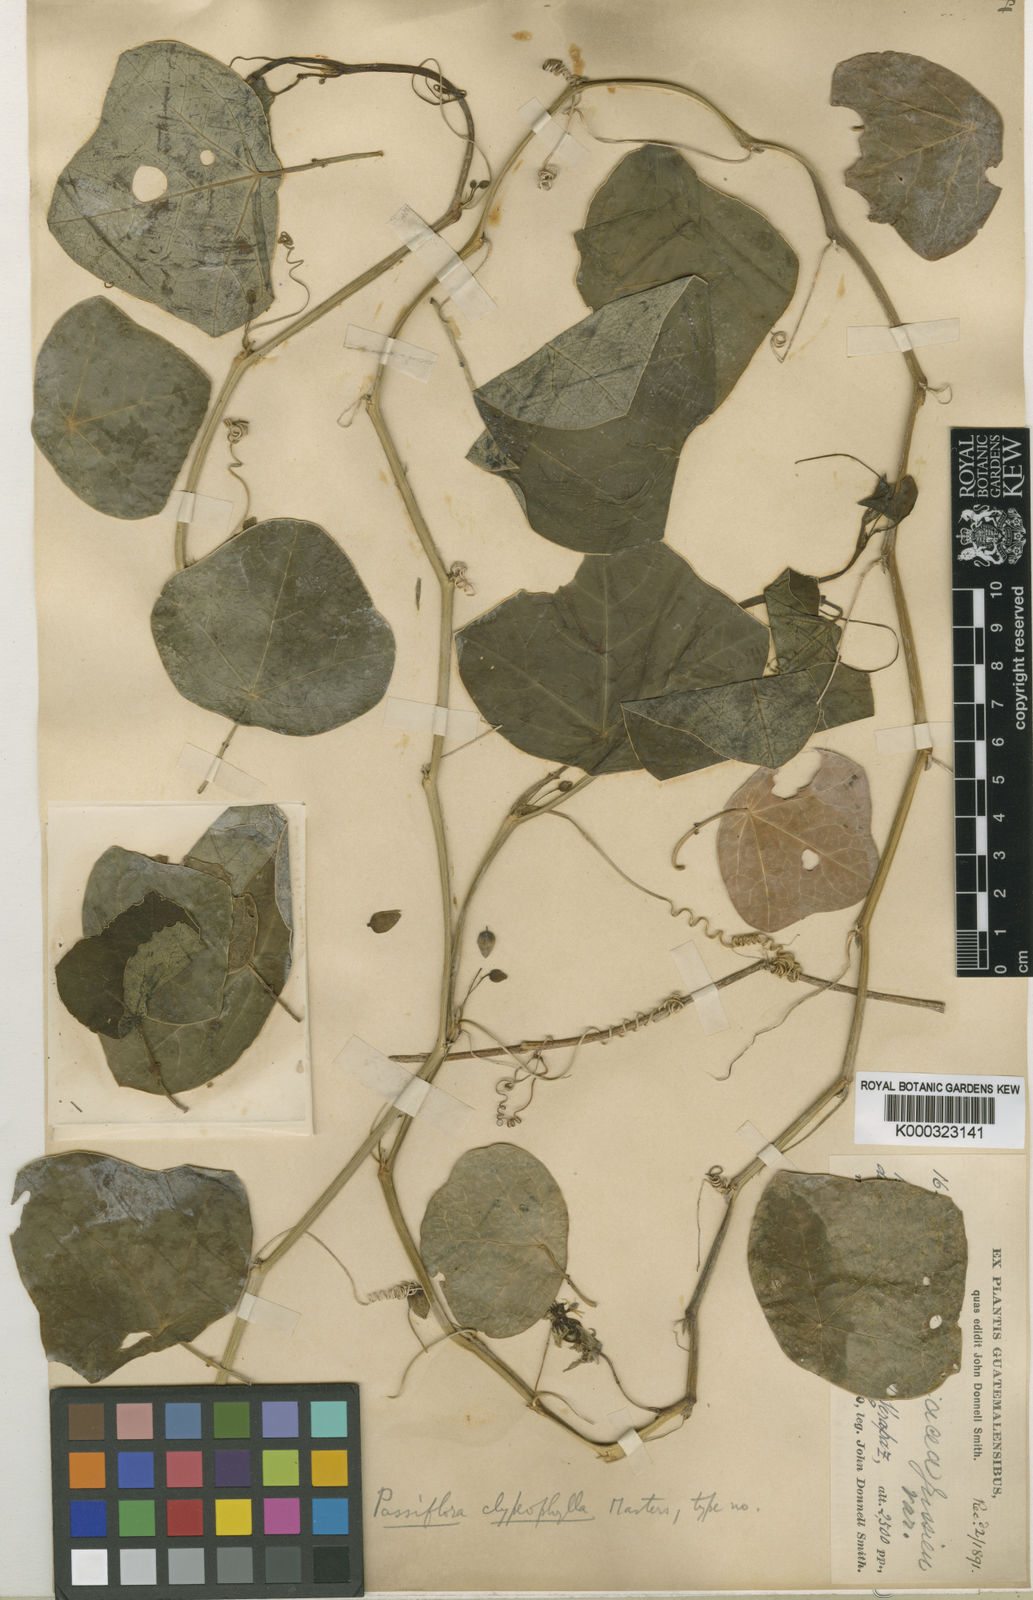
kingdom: Plantae
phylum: Tracheophyta
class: Magnoliopsida
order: Malpighiales
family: Passifloraceae
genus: Passiflora
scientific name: Passiflora coriacea
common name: Bat-leaf passionflower
